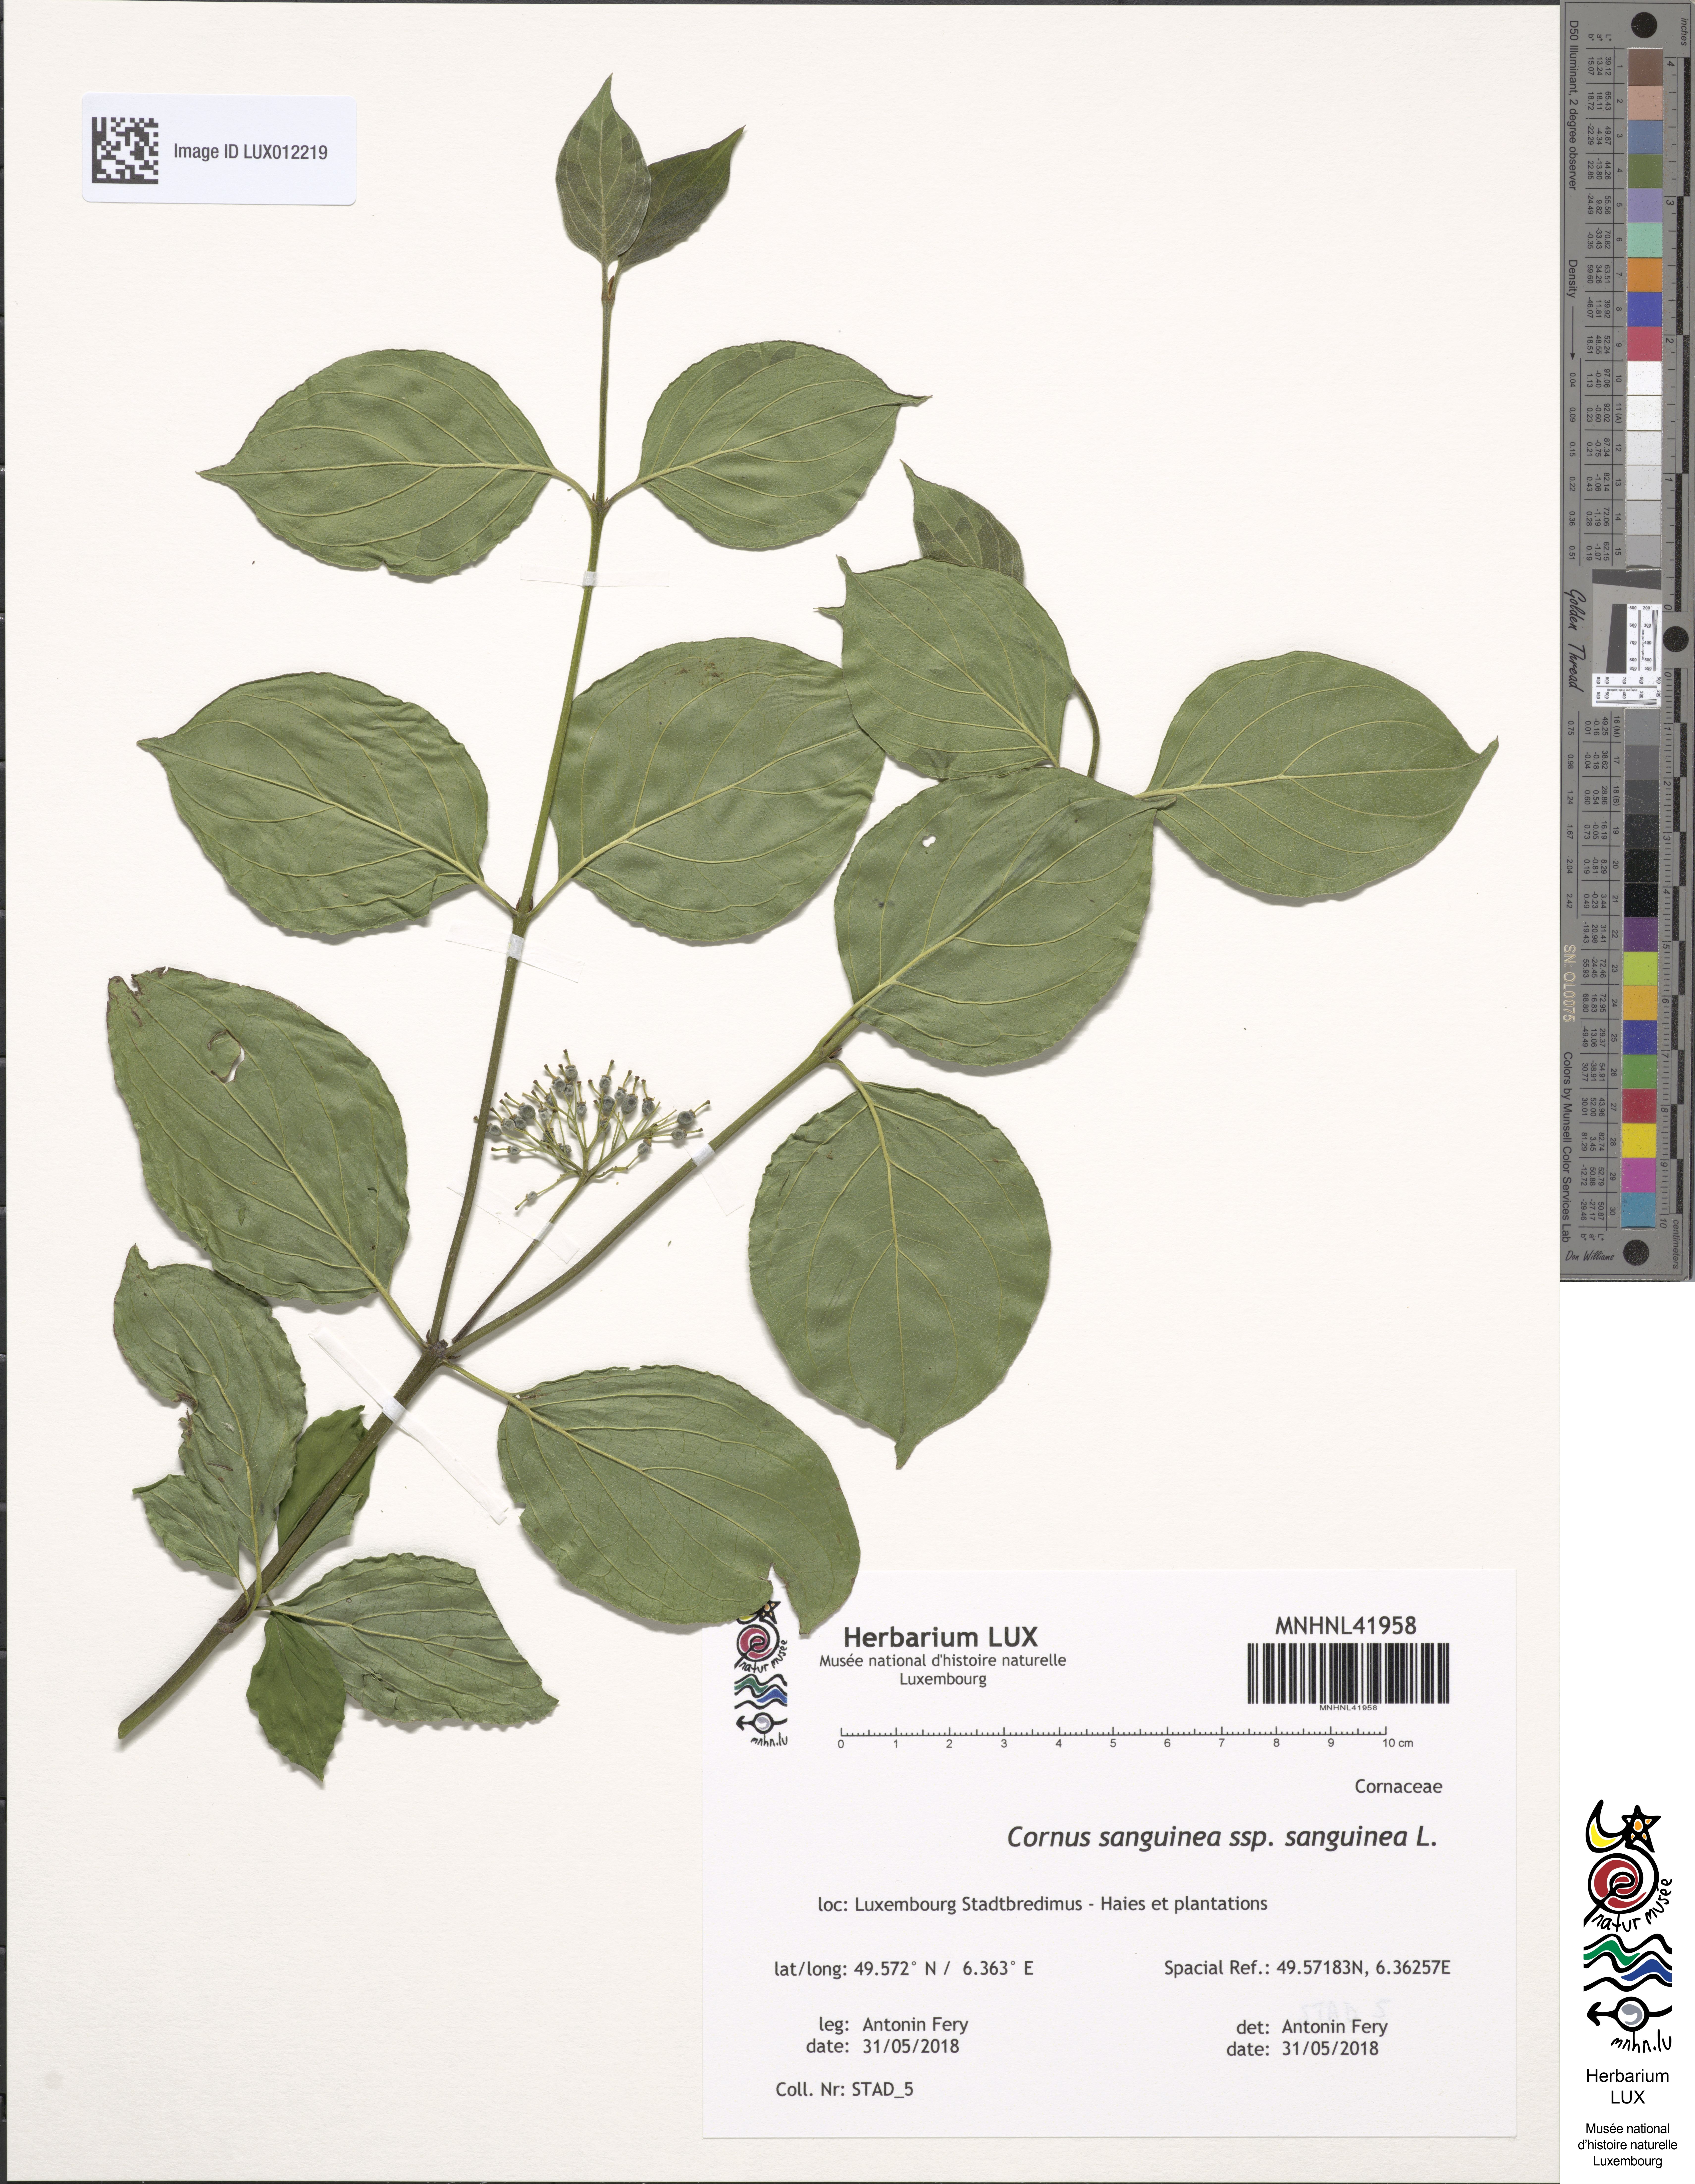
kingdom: Plantae
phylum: Tracheophyta
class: Magnoliopsida
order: Cornales
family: Cornaceae
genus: Cornus
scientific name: Cornus sanguinea
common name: Dogwood
